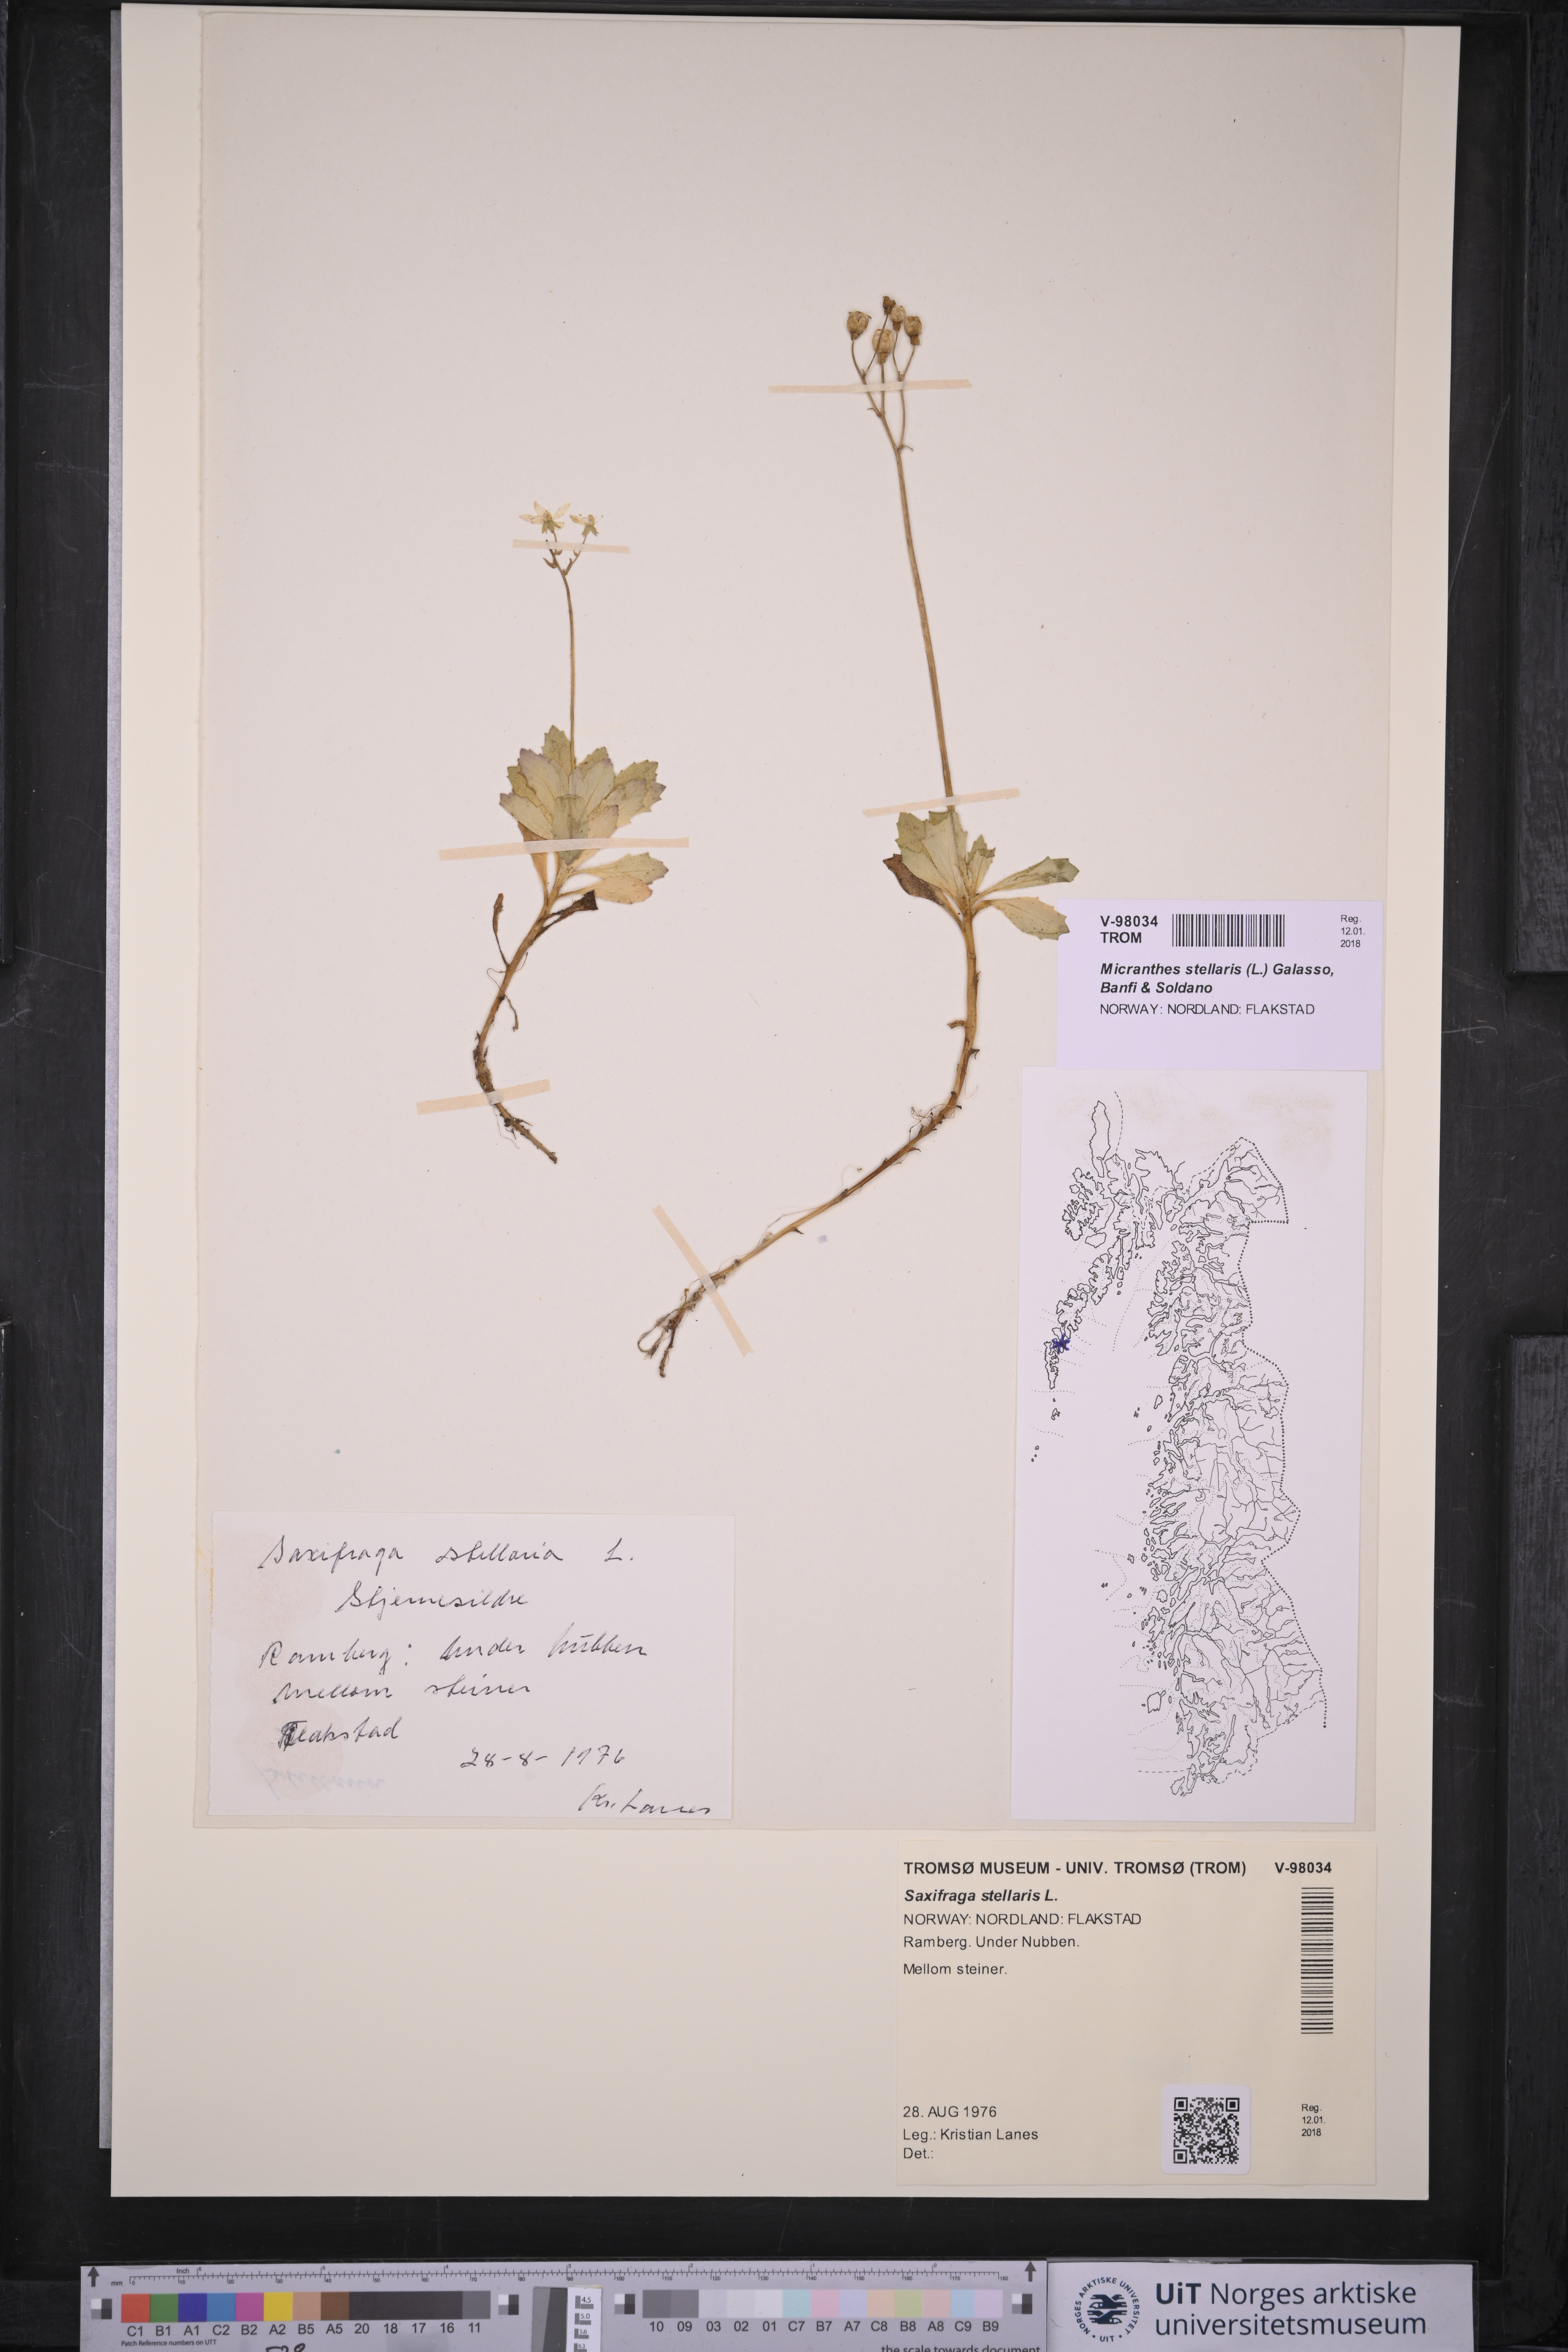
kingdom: Plantae
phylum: Tracheophyta
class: Magnoliopsida
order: Saxifragales
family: Saxifragaceae
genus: Micranthes
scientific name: Micranthes stellaris
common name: Starry saxifrage
